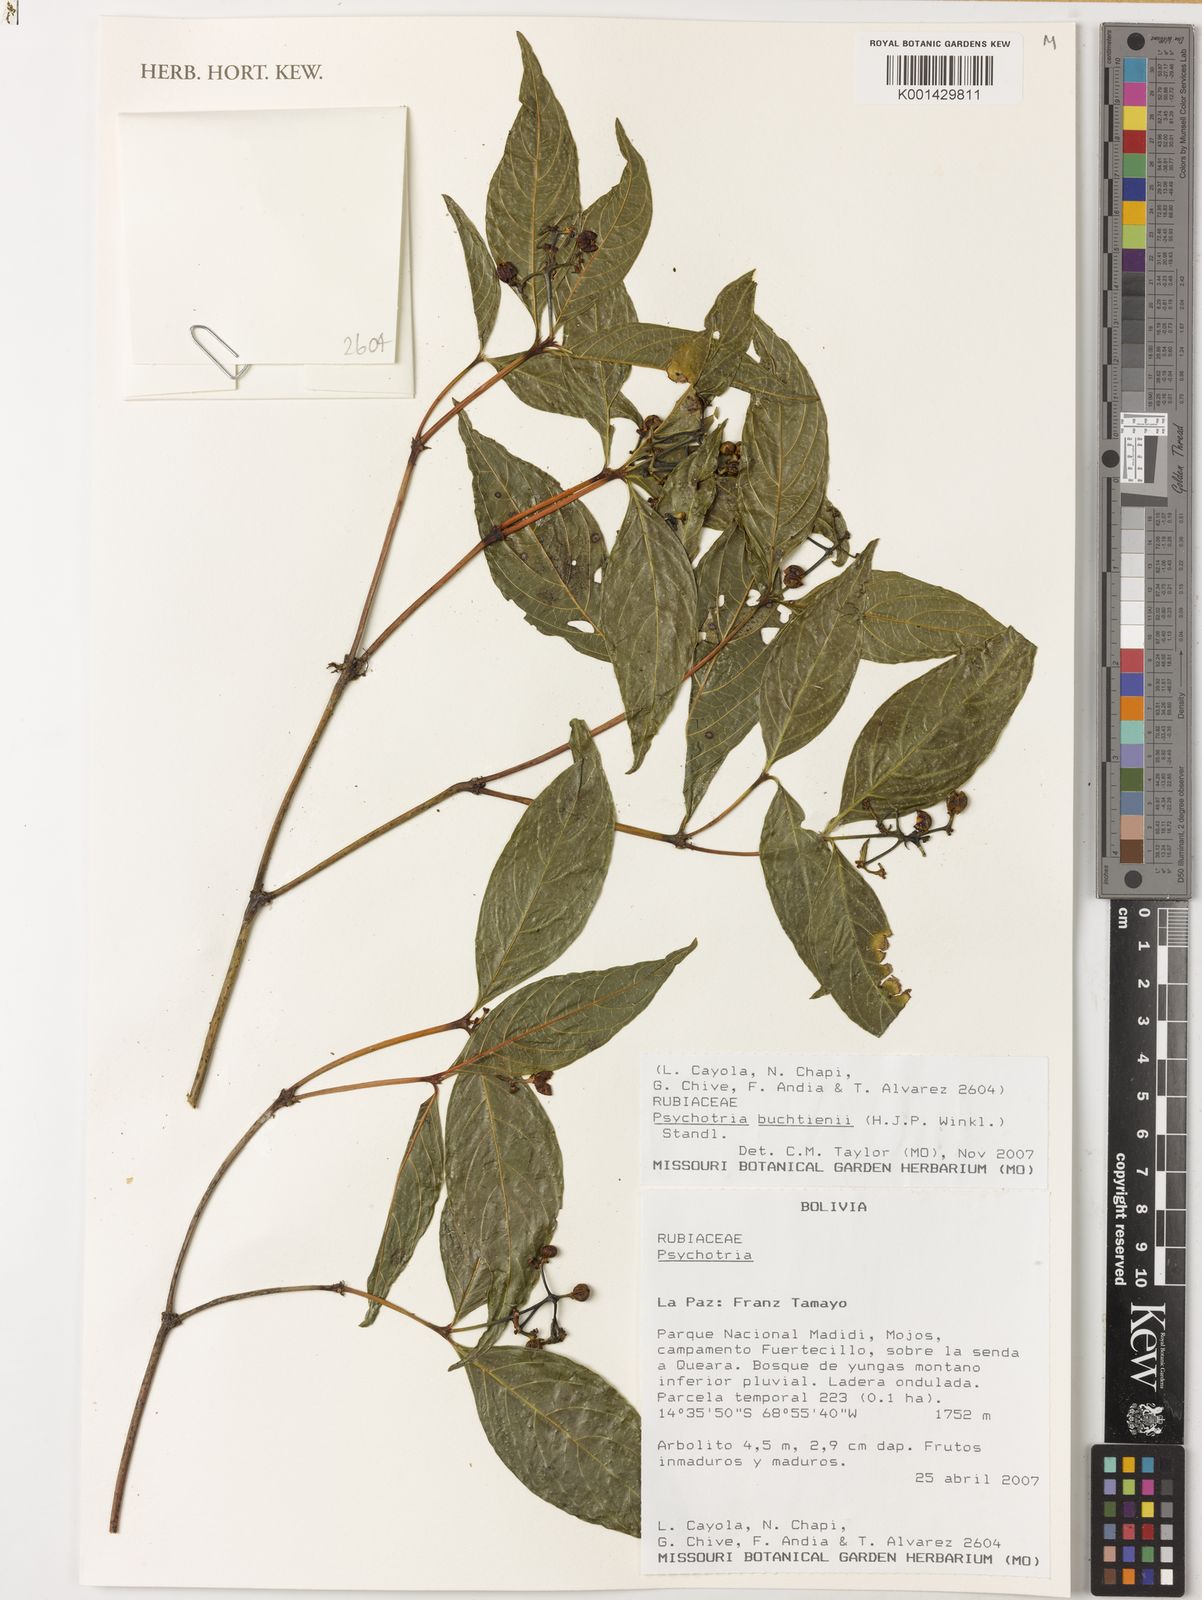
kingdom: Plantae
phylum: Tracheophyta
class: Magnoliopsida
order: Gentianales
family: Rubiaceae
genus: Palicourea
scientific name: Palicourea winkleri
